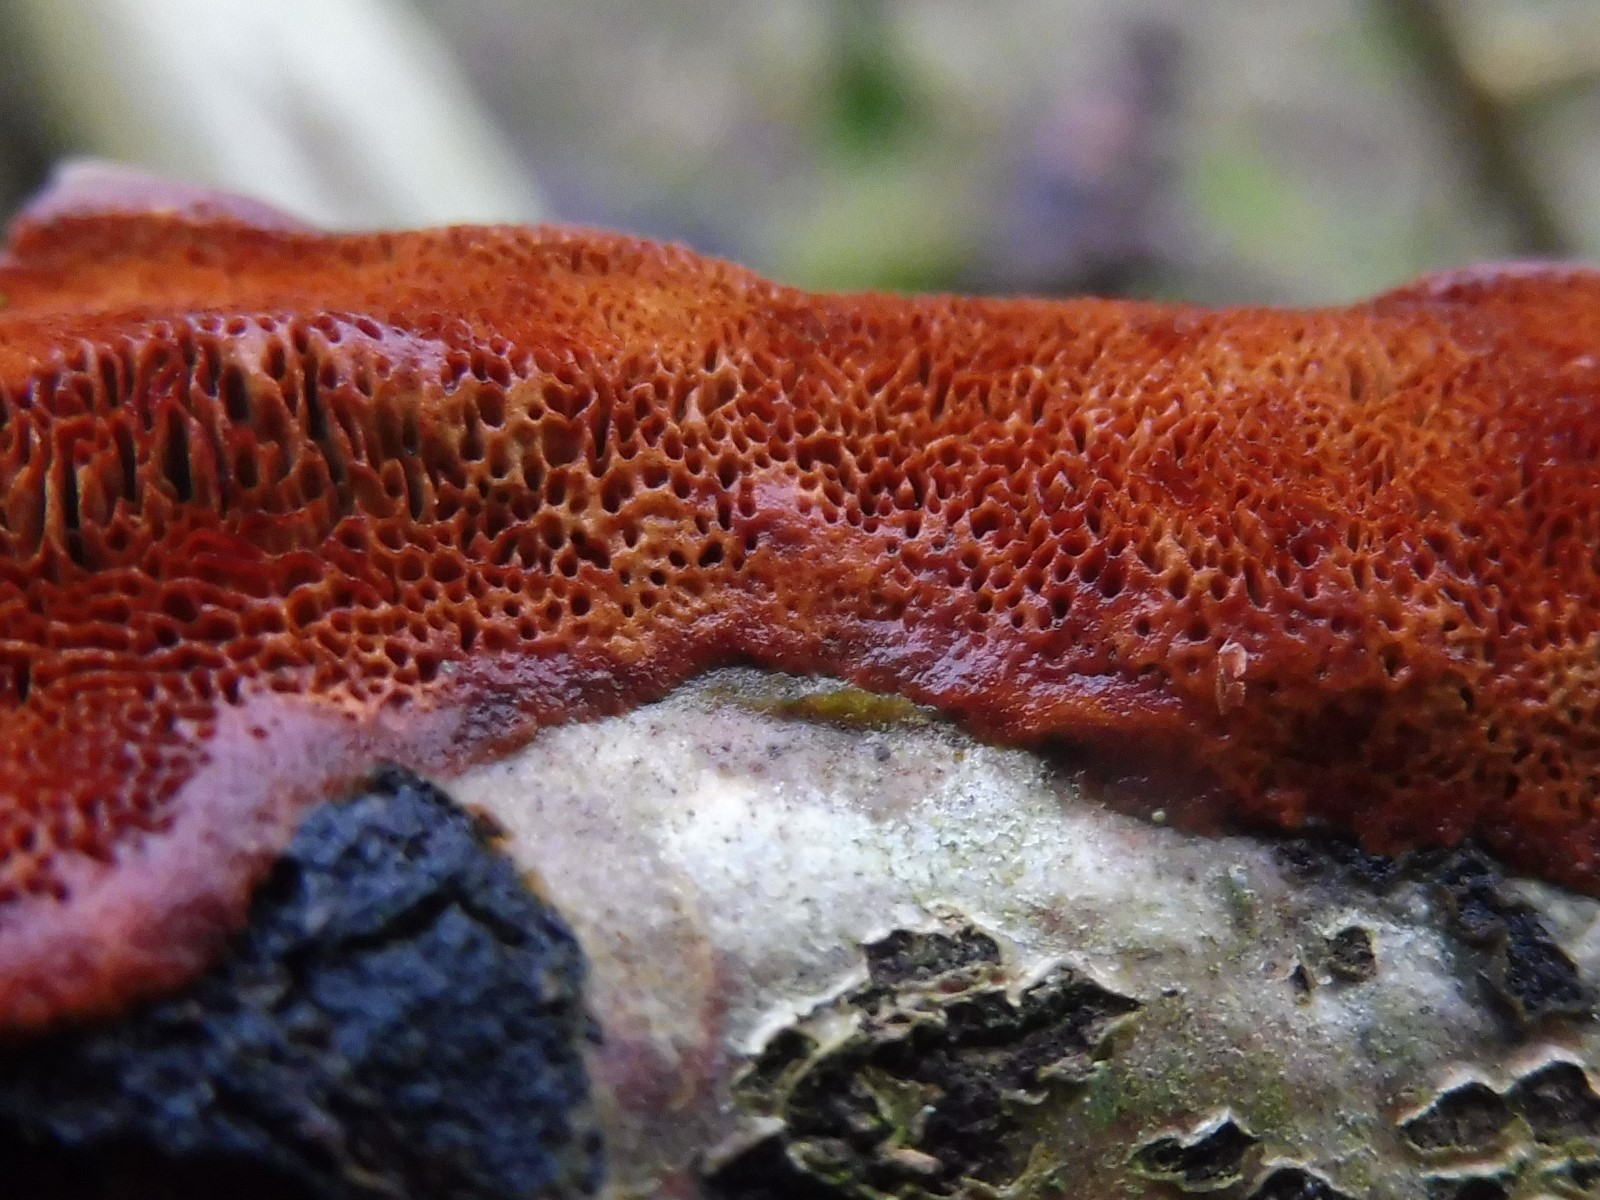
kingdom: Fungi
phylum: Basidiomycota
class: Agaricomycetes
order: Hymenochaetales
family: Hymenochaetaceae
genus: Fuscoporia
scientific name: Fuscoporia
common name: Ildporesvamp
